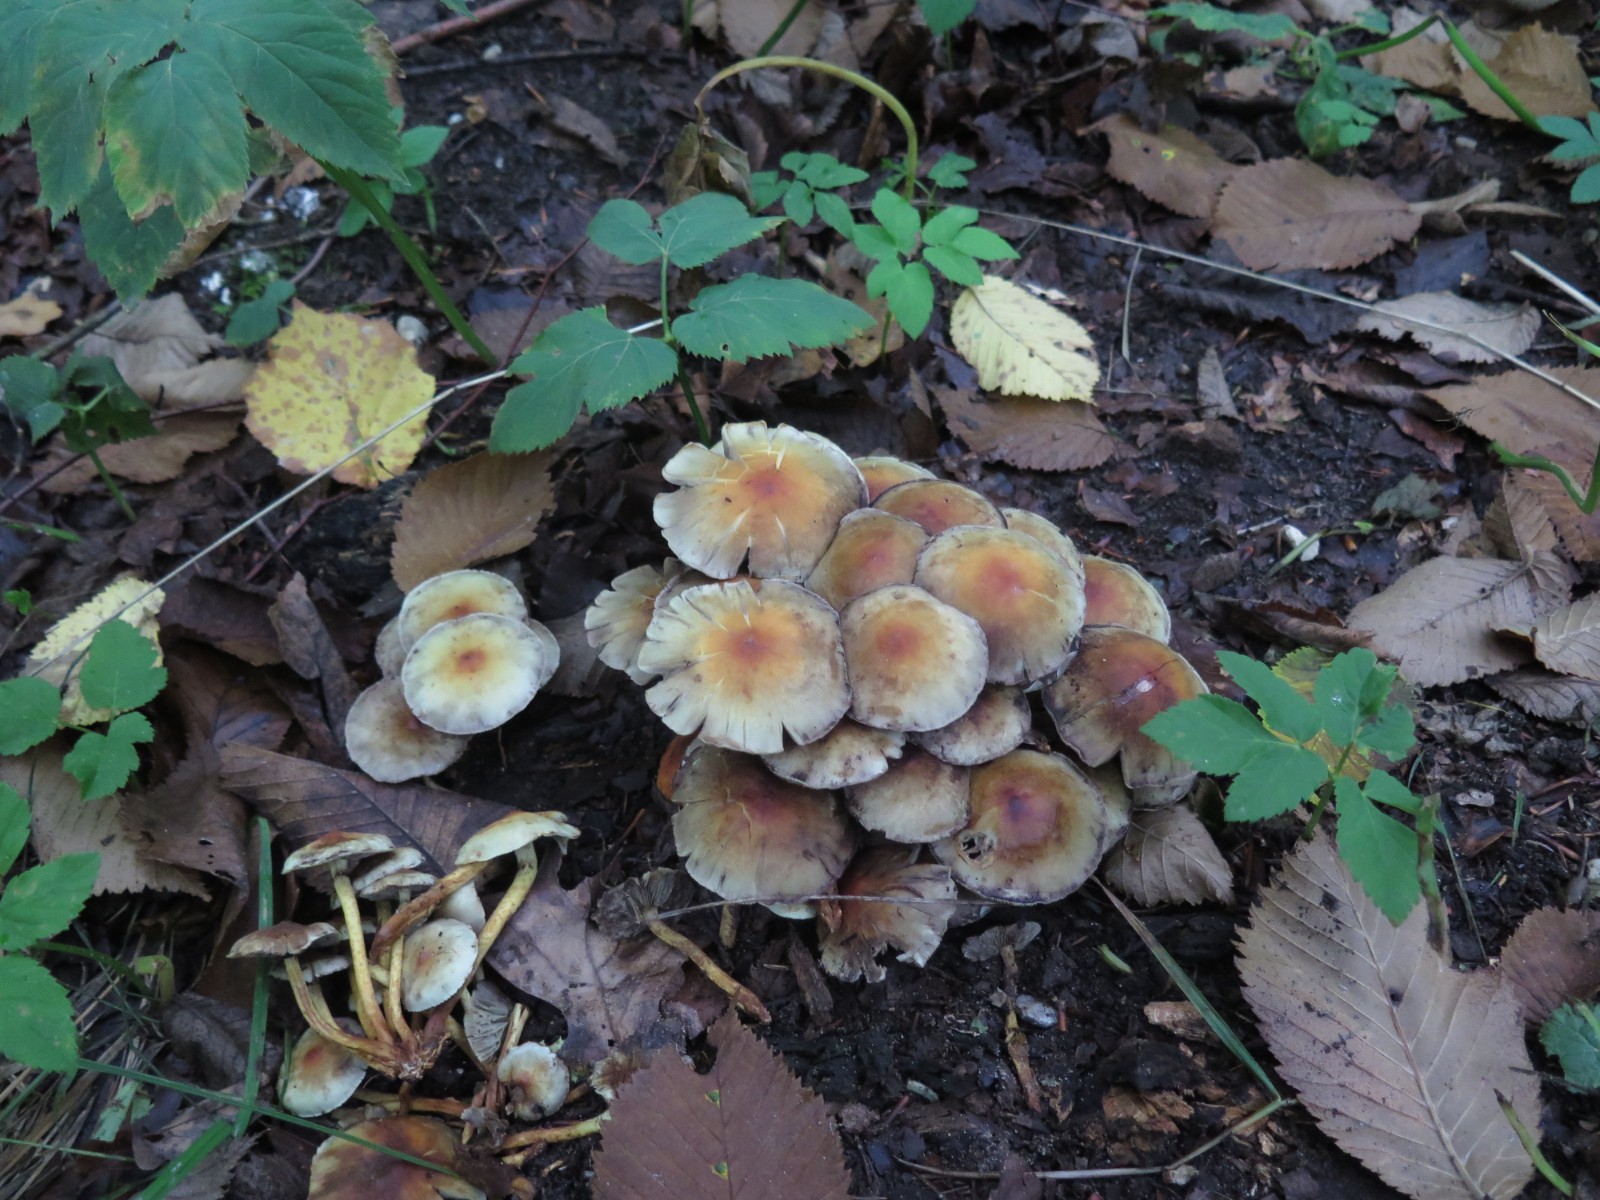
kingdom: Fungi
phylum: Basidiomycota
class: Agaricomycetes
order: Agaricales
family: Strophariaceae
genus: Hypholoma
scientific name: Hypholoma fasciculare
